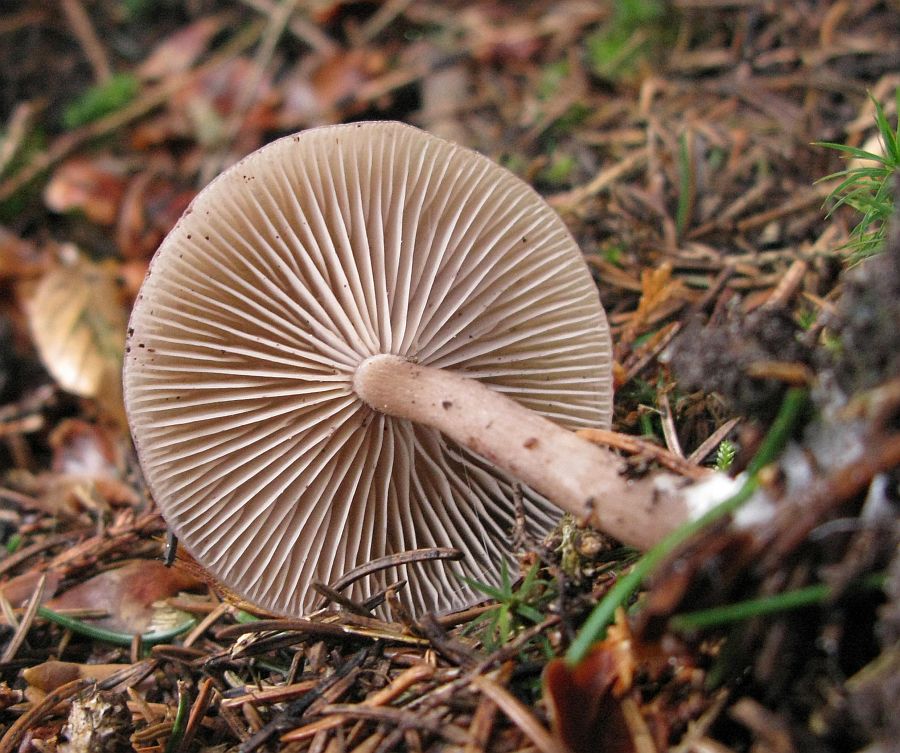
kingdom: Fungi
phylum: Basidiomycota
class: Agaricomycetes
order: Agaricales
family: Pseudoclitocybaceae
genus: Pseudoclitocybe
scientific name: Pseudoclitocybe cyathiformis
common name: almindelig bægertragthat
